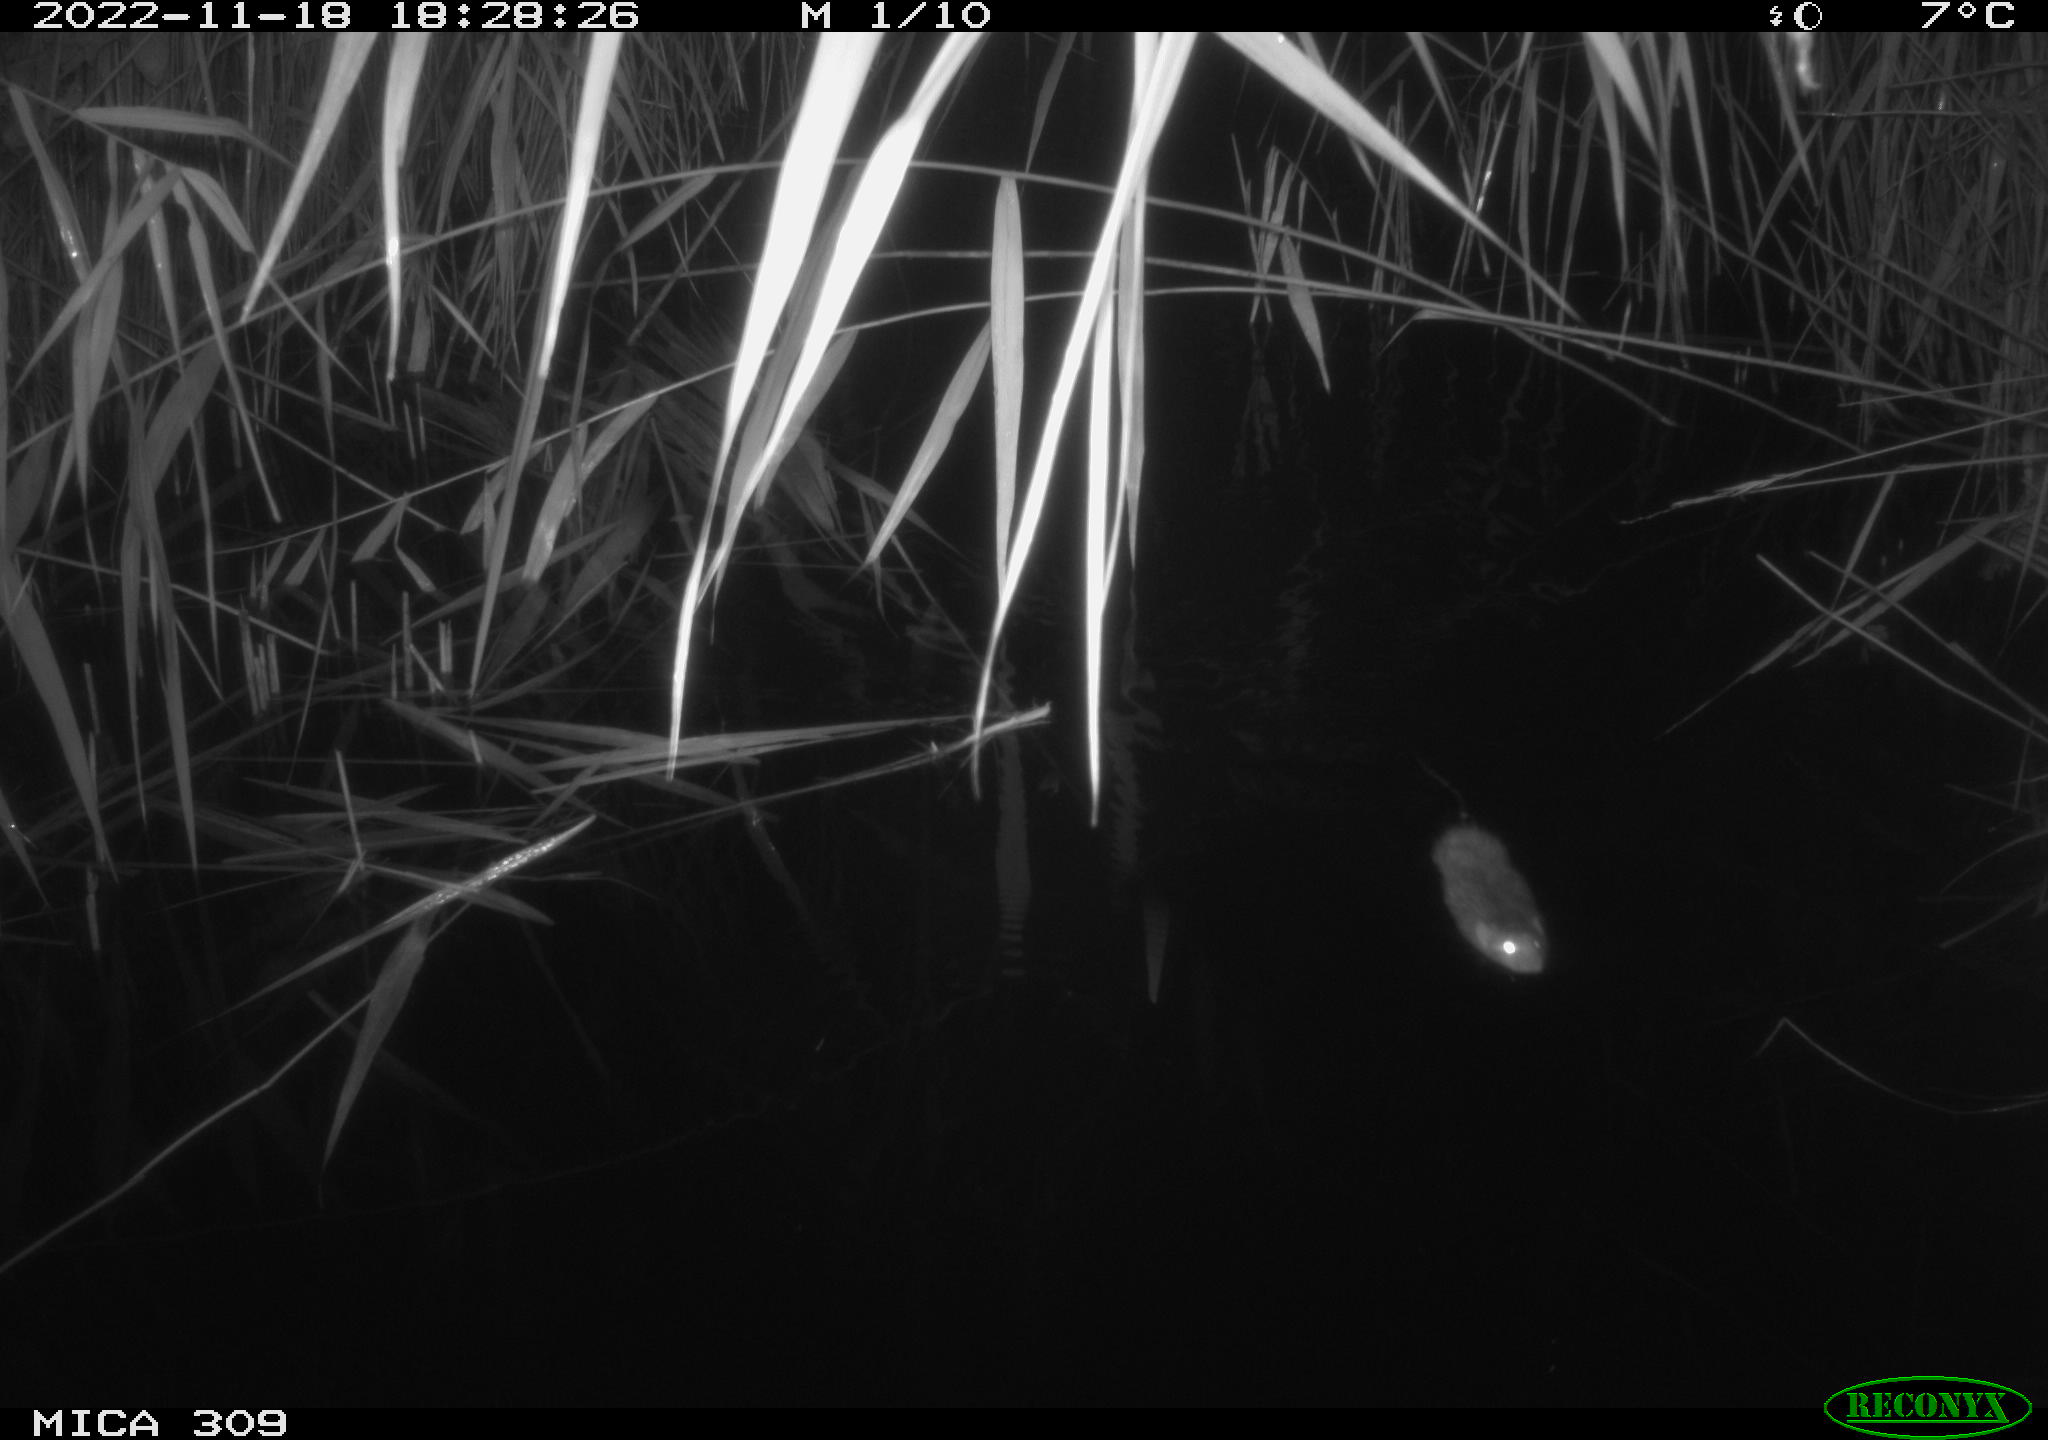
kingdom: Animalia
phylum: Chordata
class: Mammalia
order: Rodentia
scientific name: Rodentia
